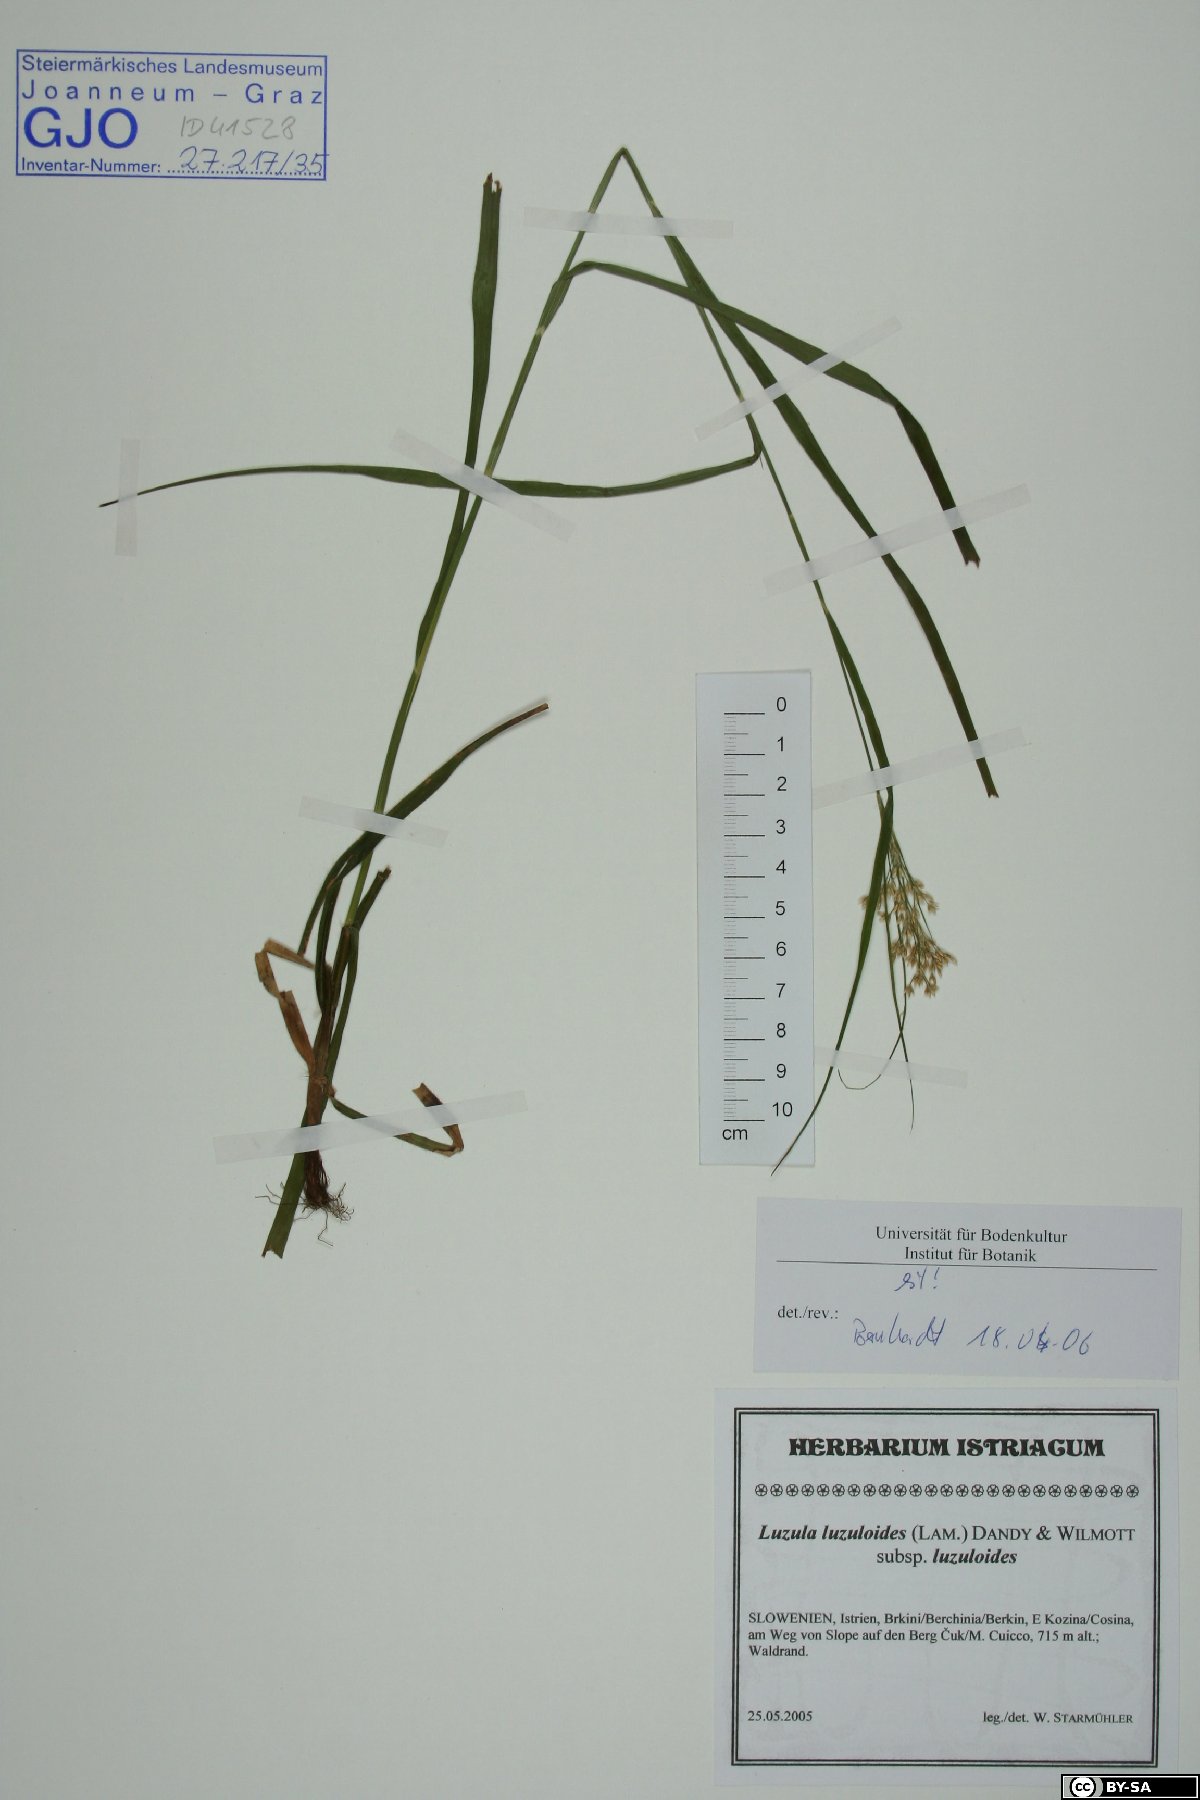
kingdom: Plantae
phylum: Tracheophyta
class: Liliopsida
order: Poales
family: Juncaceae
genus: Luzula
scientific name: Luzula luzuloides
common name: White wood-rush
